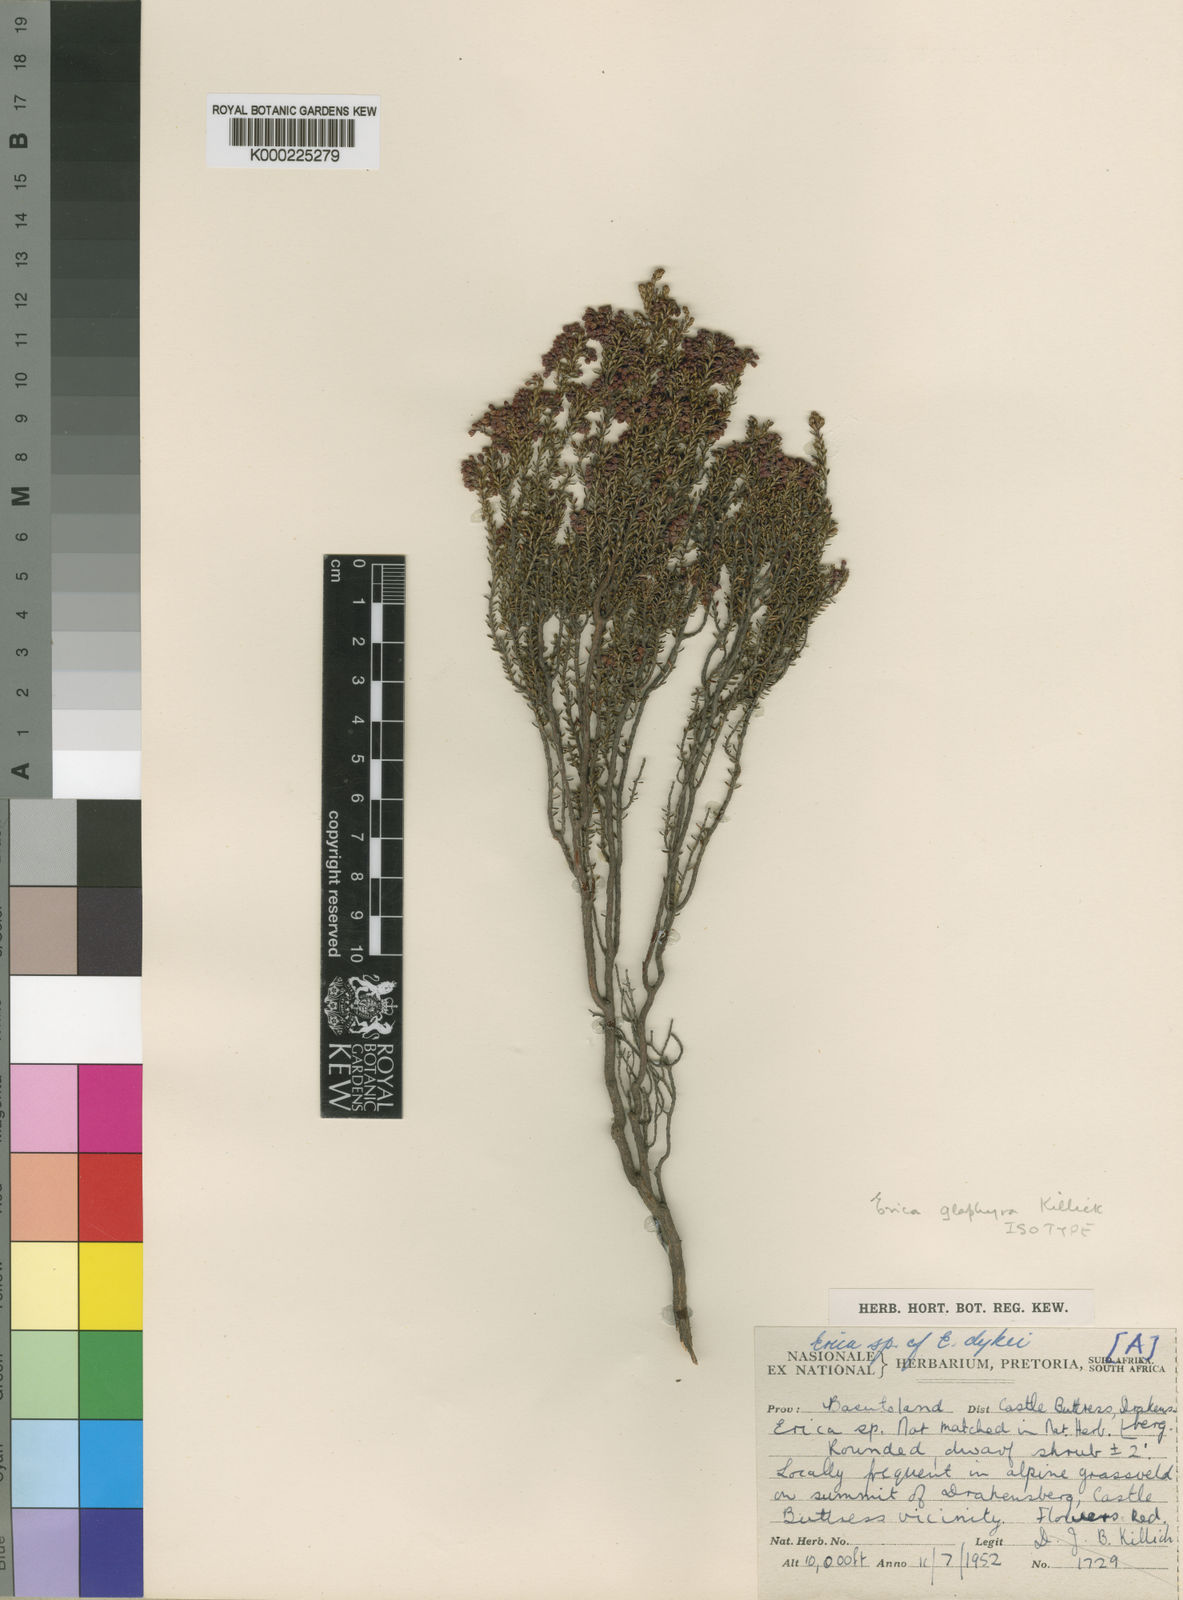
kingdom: Plantae
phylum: Tracheophyta
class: Magnoliopsida
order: Ericales
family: Ericaceae
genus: Erica
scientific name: Erica glaphyra
